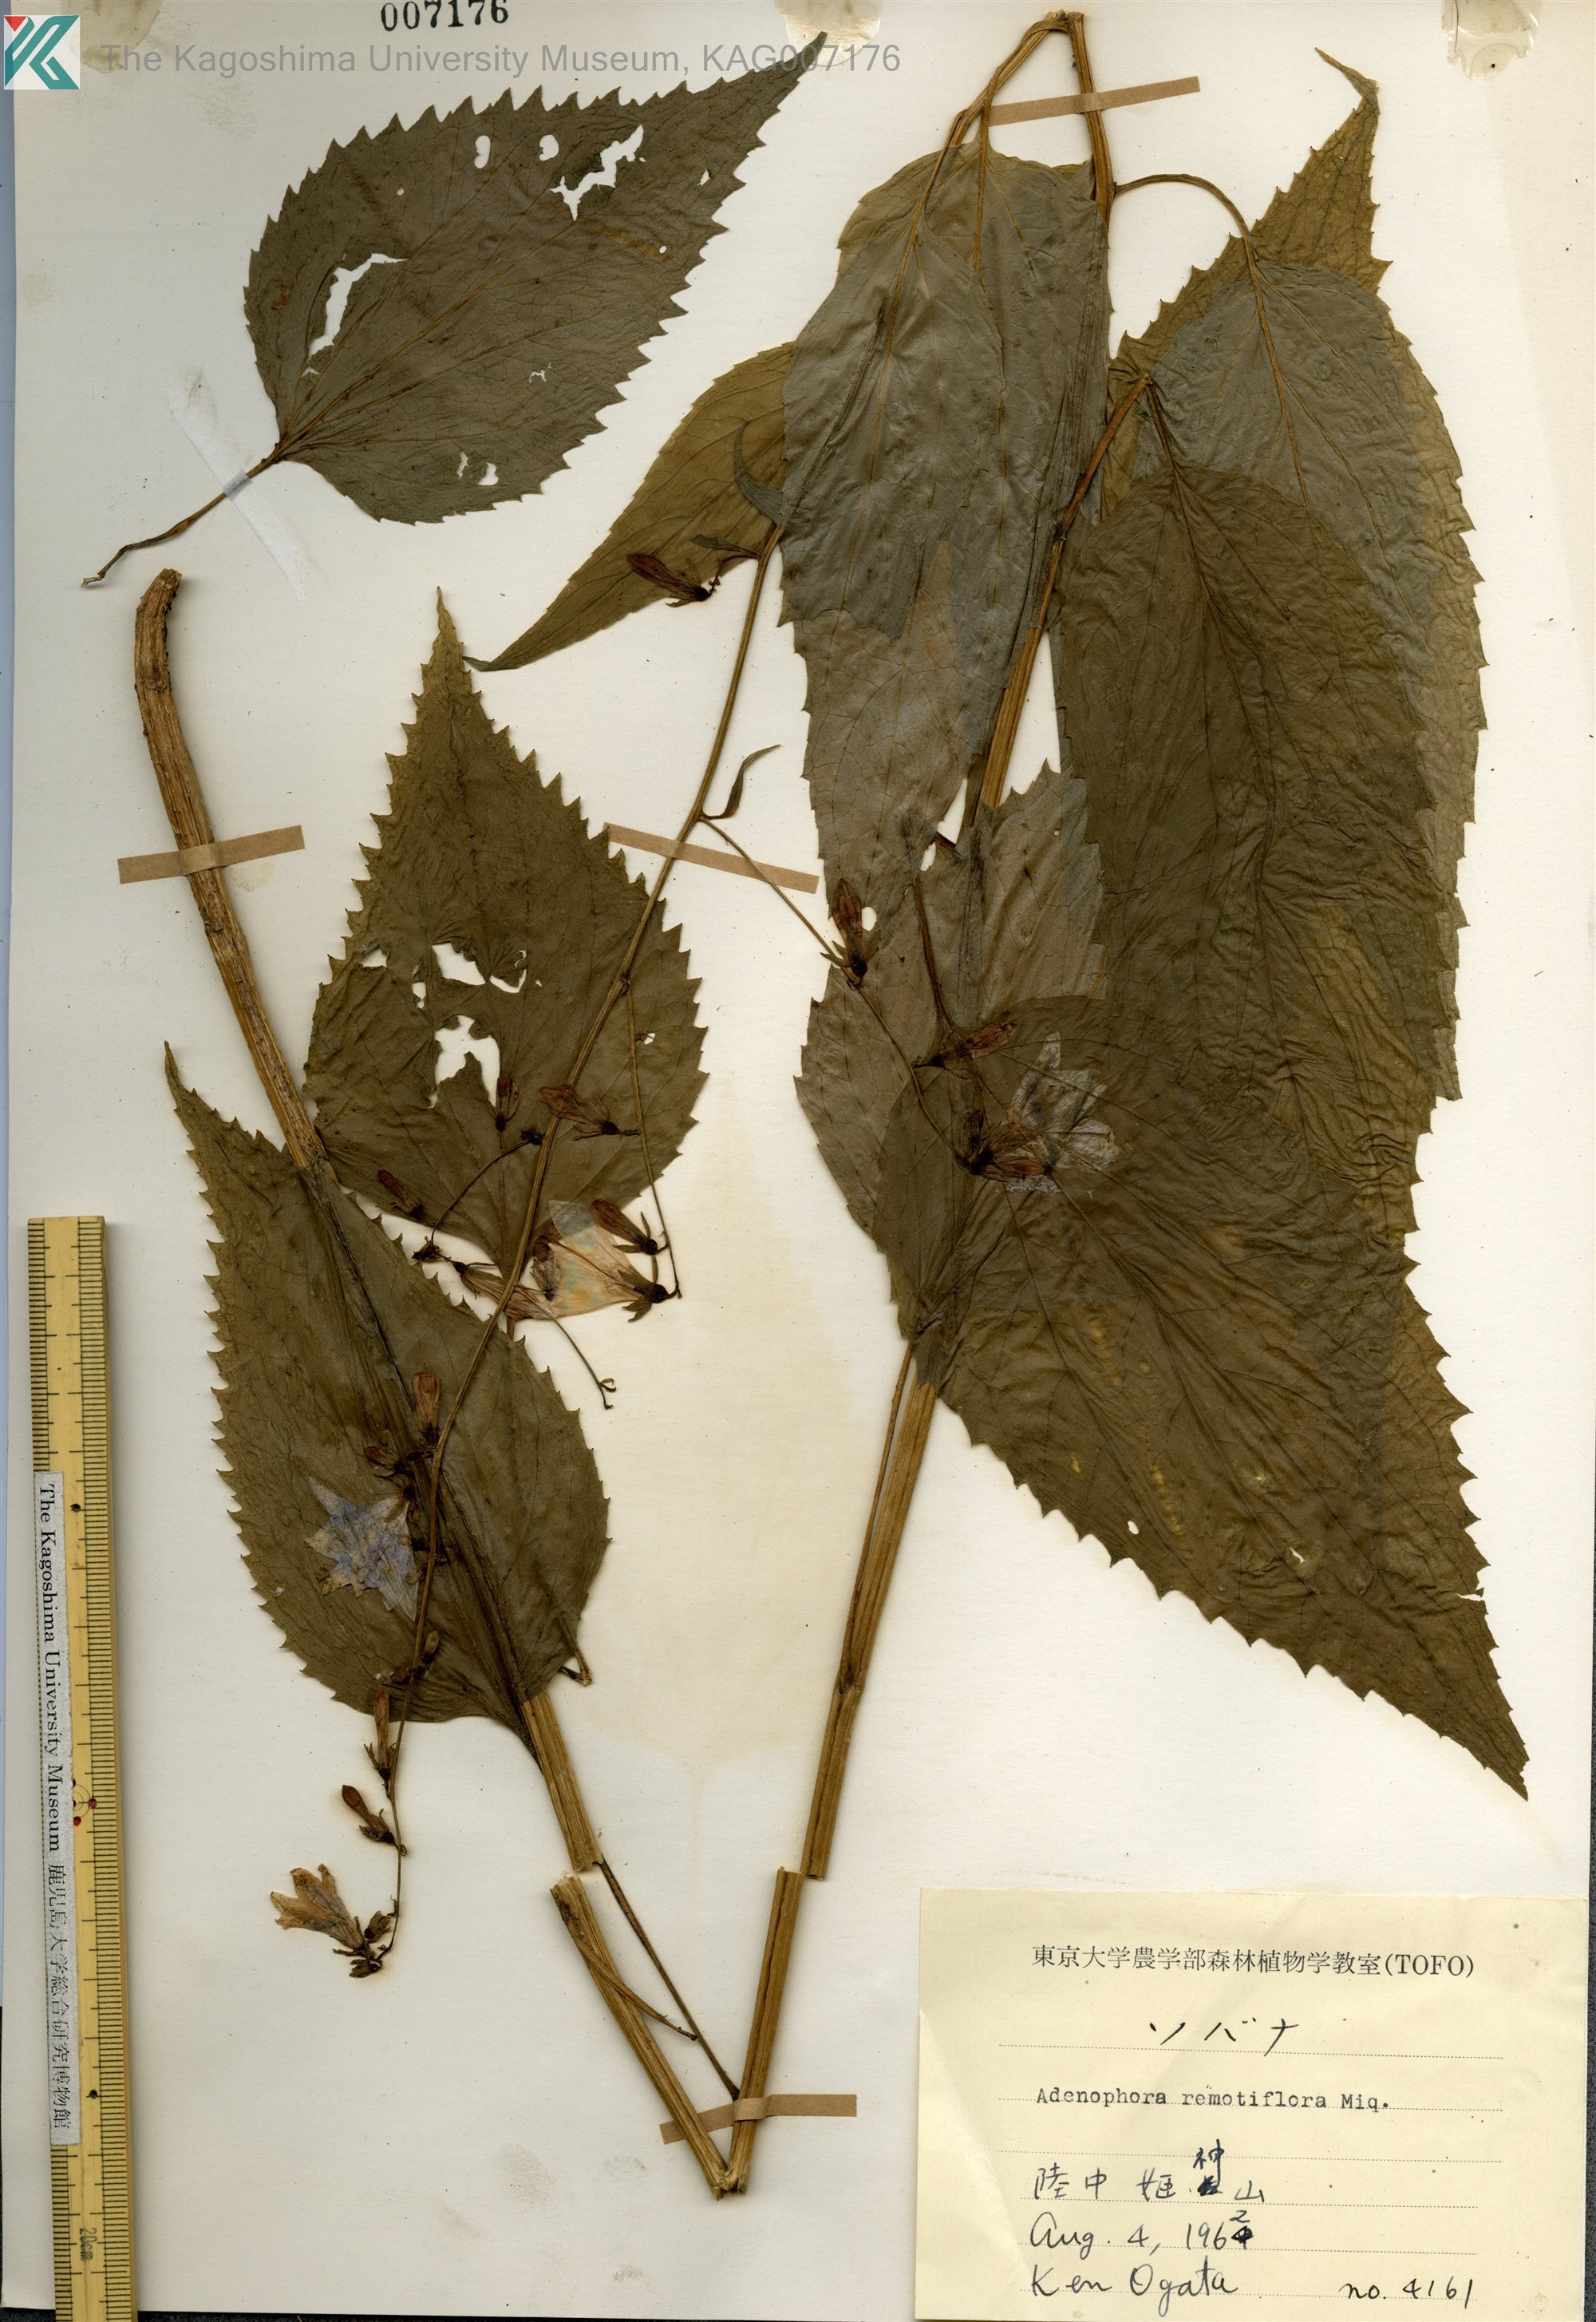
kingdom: Plantae
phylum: Tracheophyta
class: Magnoliopsida
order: Asterales
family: Campanulaceae
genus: Adenophora
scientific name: Adenophora remotiflora
